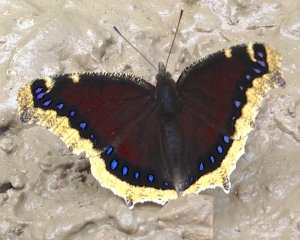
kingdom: Animalia
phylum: Arthropoda
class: Insecta
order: Lepidoptera
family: Nymphalidae
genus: Nymphalis
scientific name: Nymphalis antiopa
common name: Mourning Cloak
